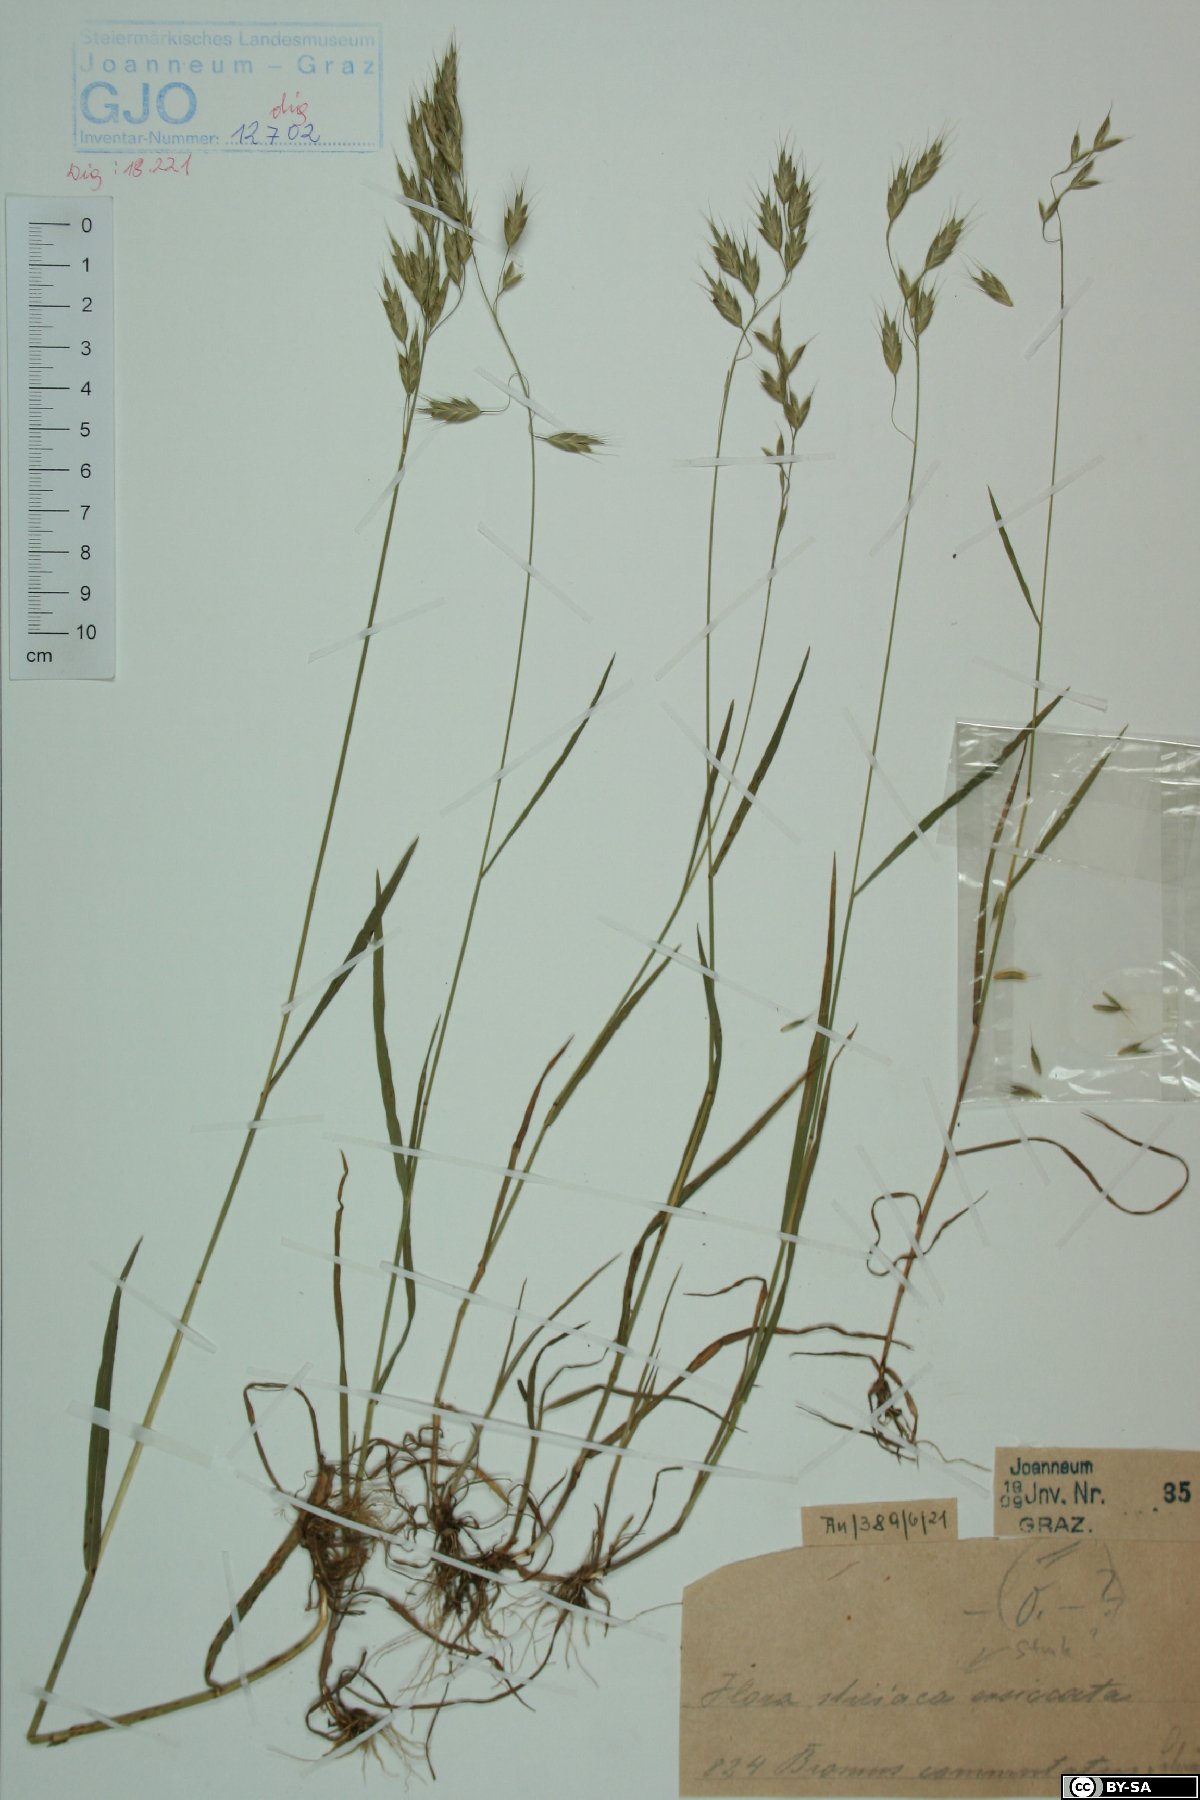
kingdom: Plantae
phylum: Tracheophyta
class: Liliopsida
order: Poales
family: Poaceae
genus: Bromus
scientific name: Bromus commutatus
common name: Meadow brome
